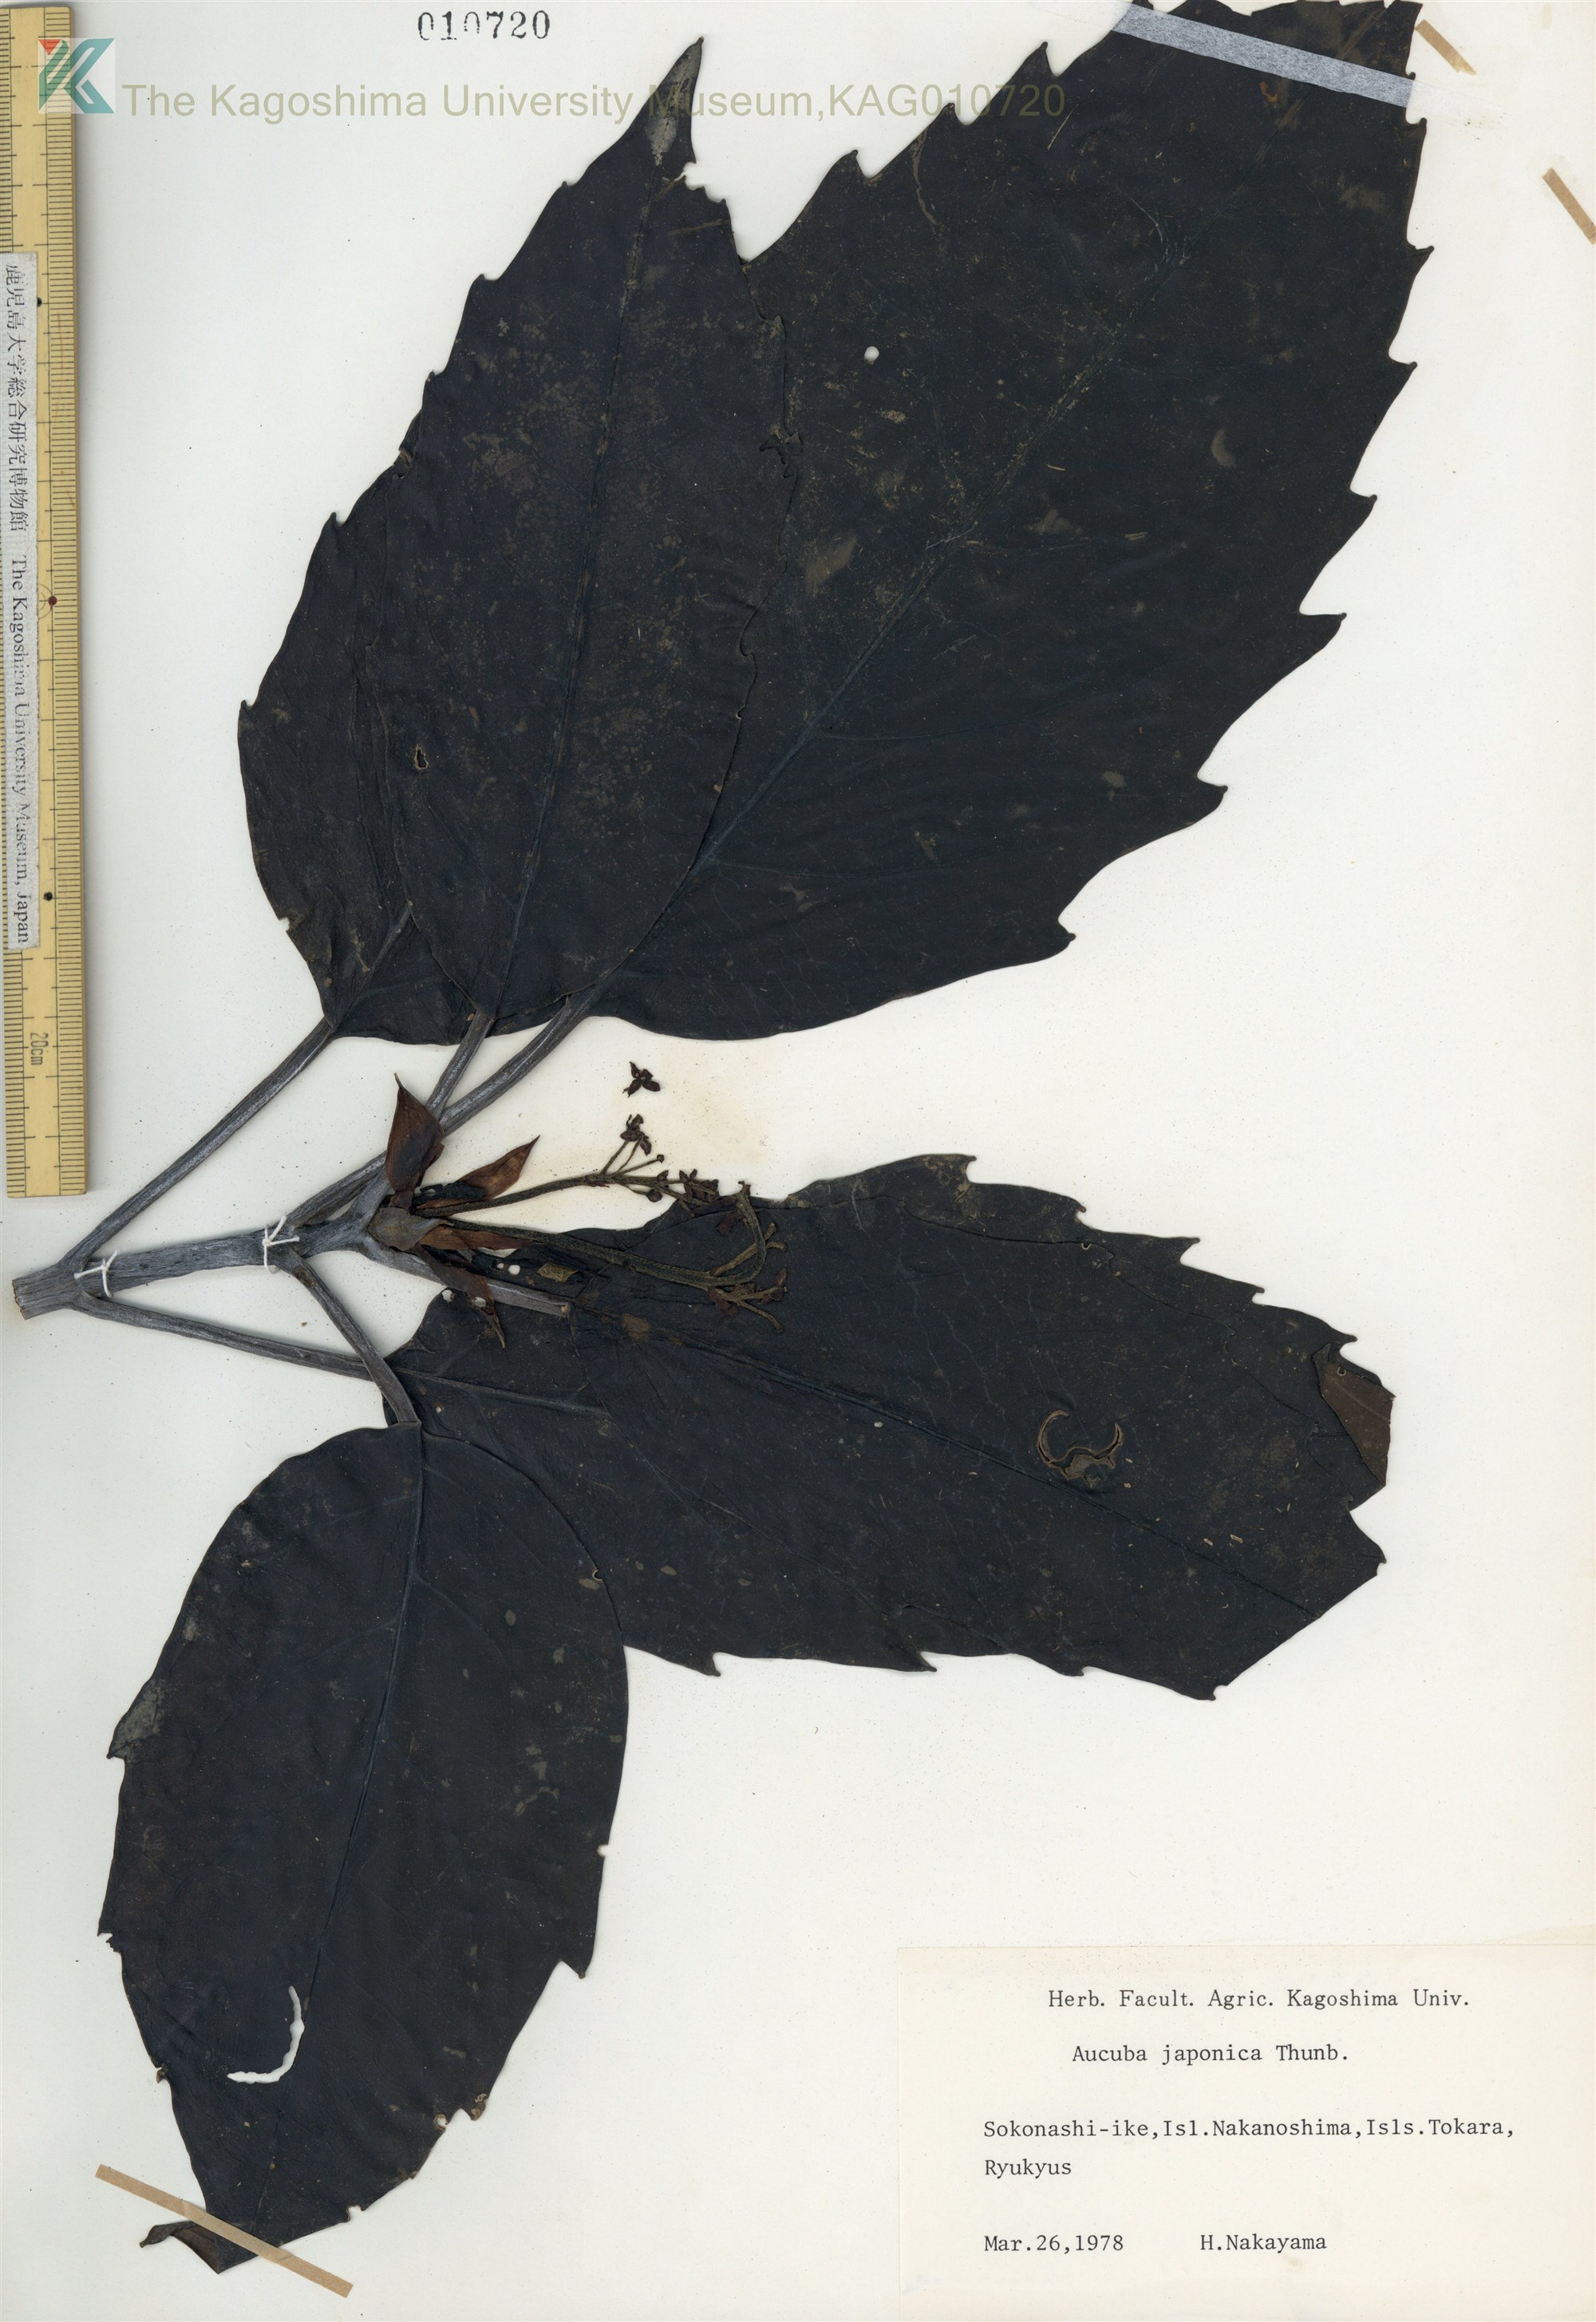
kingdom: Plantae
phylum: Tracheophyta
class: Magnoliopsida
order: Garryales
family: Garryaceae
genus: Aucuba
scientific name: Aucuba japonica
